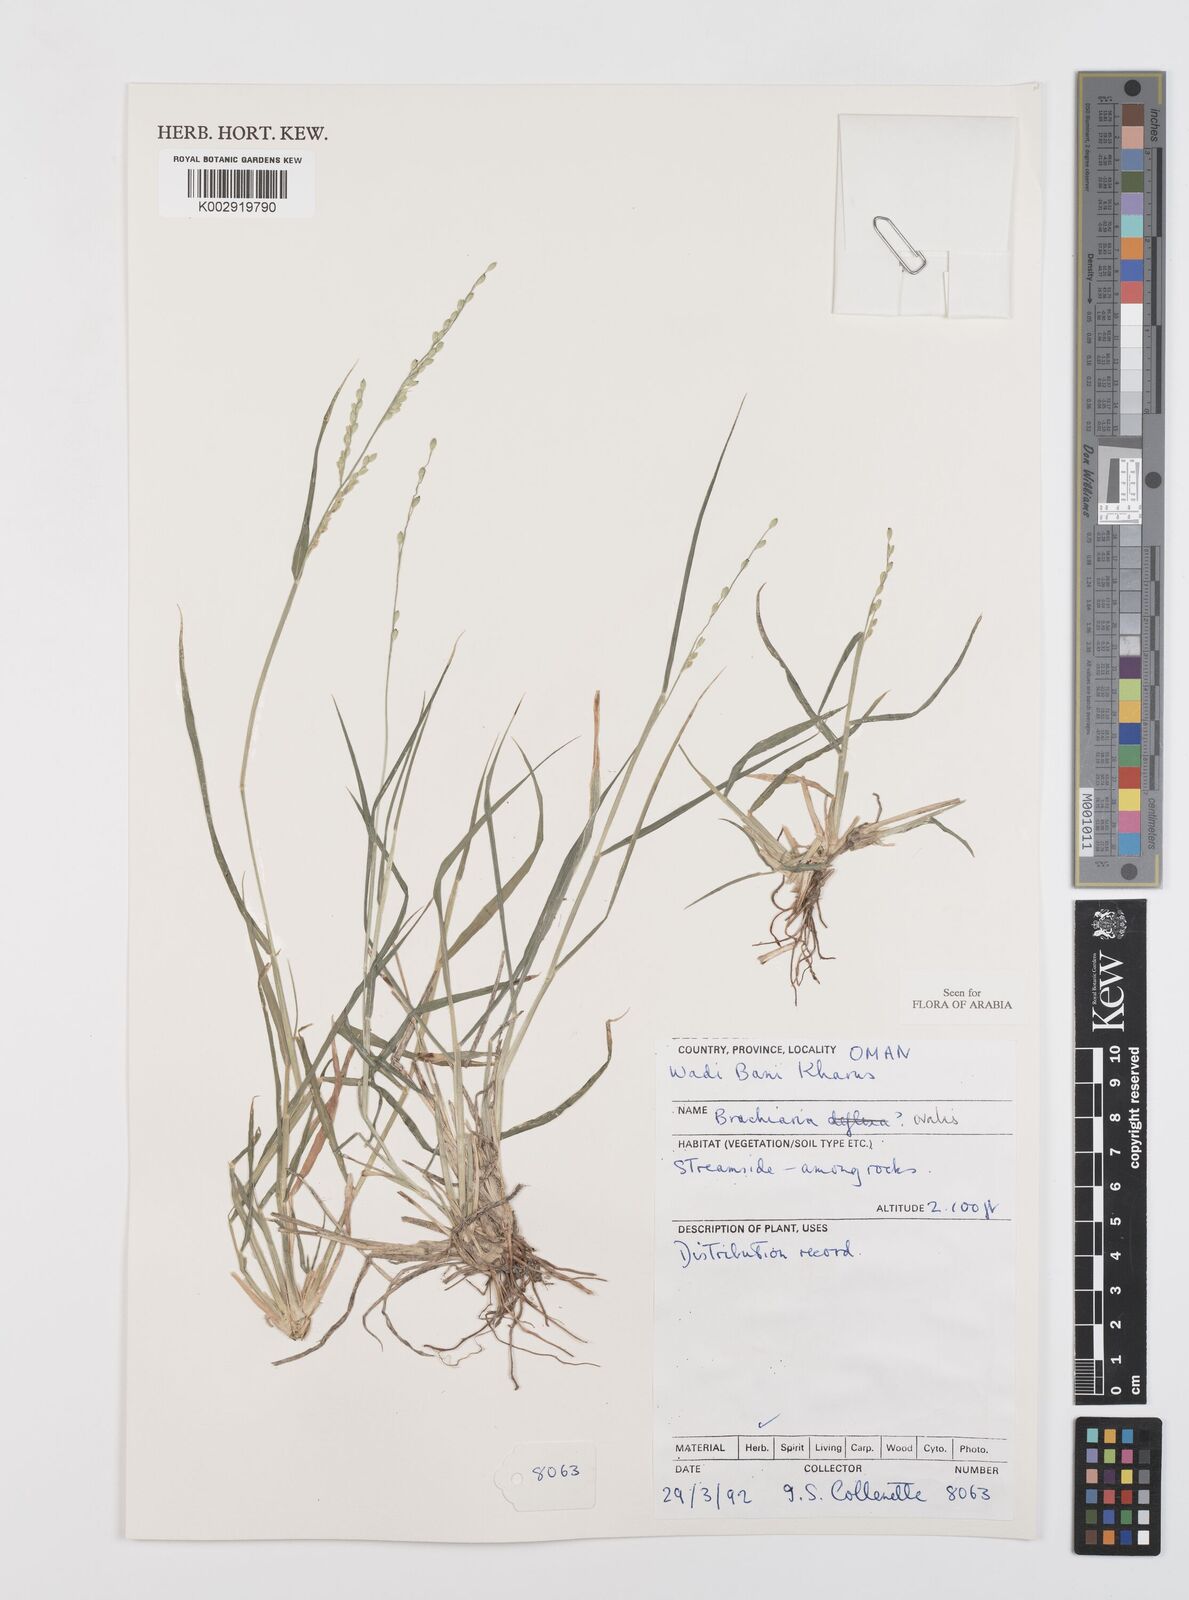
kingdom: Plantae
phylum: Tracheophyta
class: Liliopsida
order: Poales
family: Poaceae
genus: Urochloa
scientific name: Urochloa ovalis
